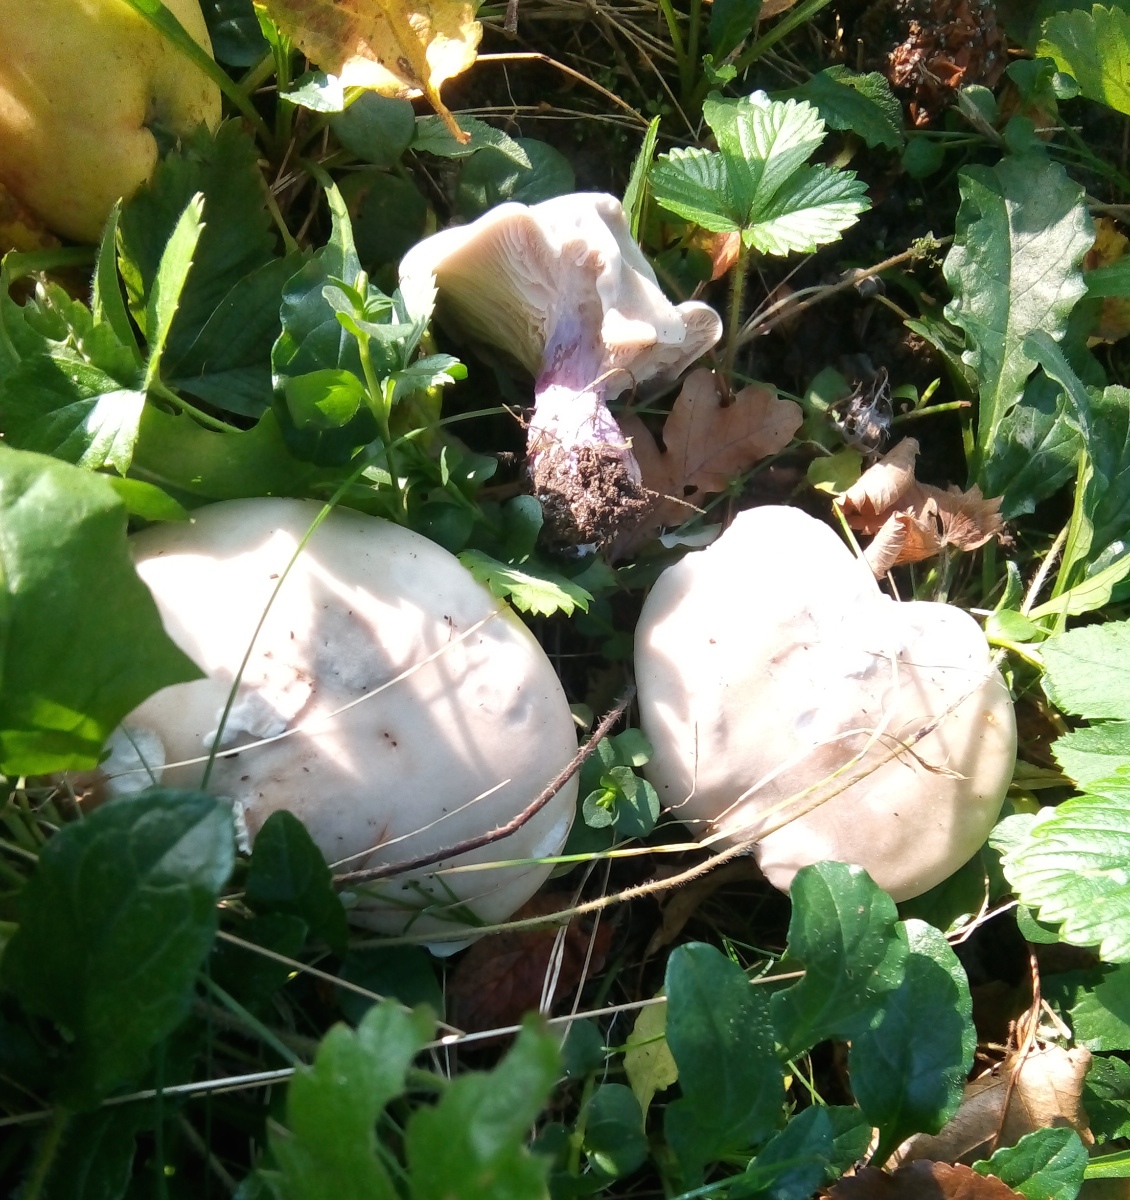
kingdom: Fungi
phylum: Basidiomycota
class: Agaricomycetes
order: Agaricales
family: Tricholomataceae
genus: Lepista
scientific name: Lepista personata
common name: bleg hekseringshat
